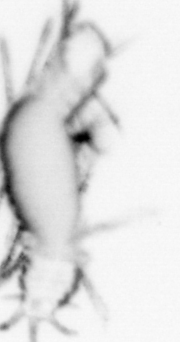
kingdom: Animalia
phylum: Annelida
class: Polychaeta
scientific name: Polychaeta
